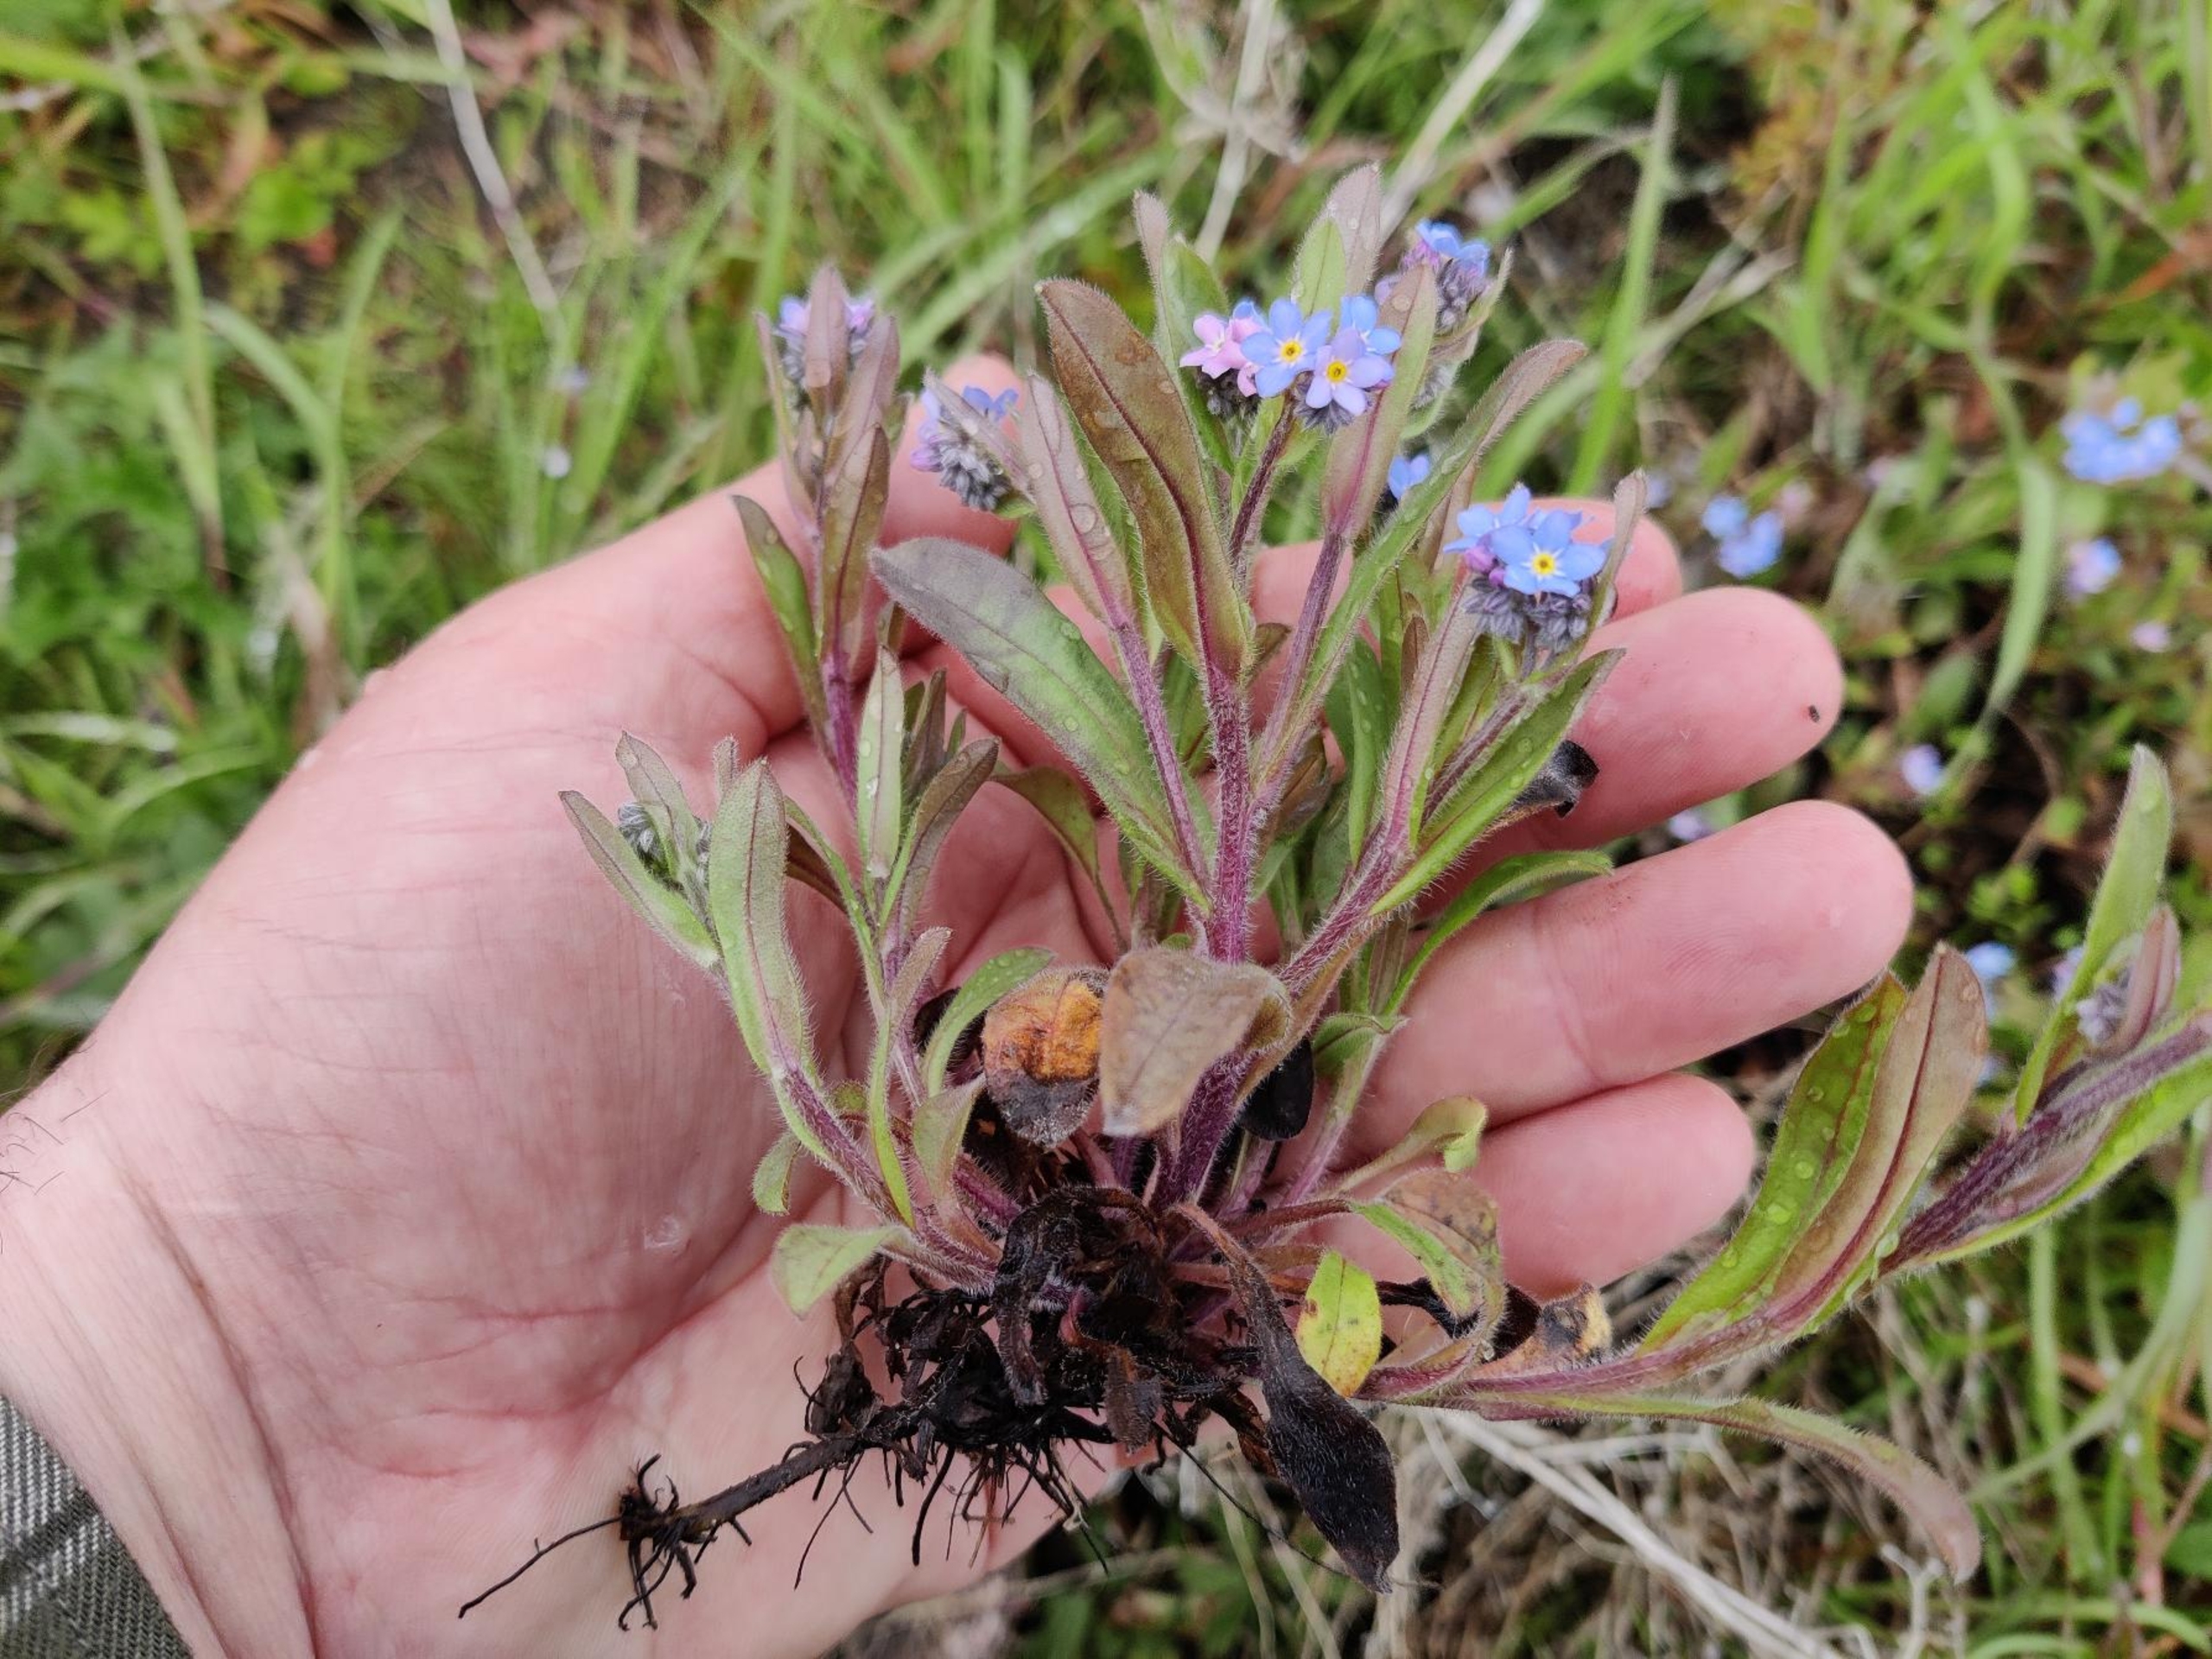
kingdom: Plantae
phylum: Tracheophyta
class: Magnoliopsida
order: Boraginales
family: Boraginaceae
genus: Myosotis
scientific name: Myosotis sylvatica
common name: Skov-forglemmigej
